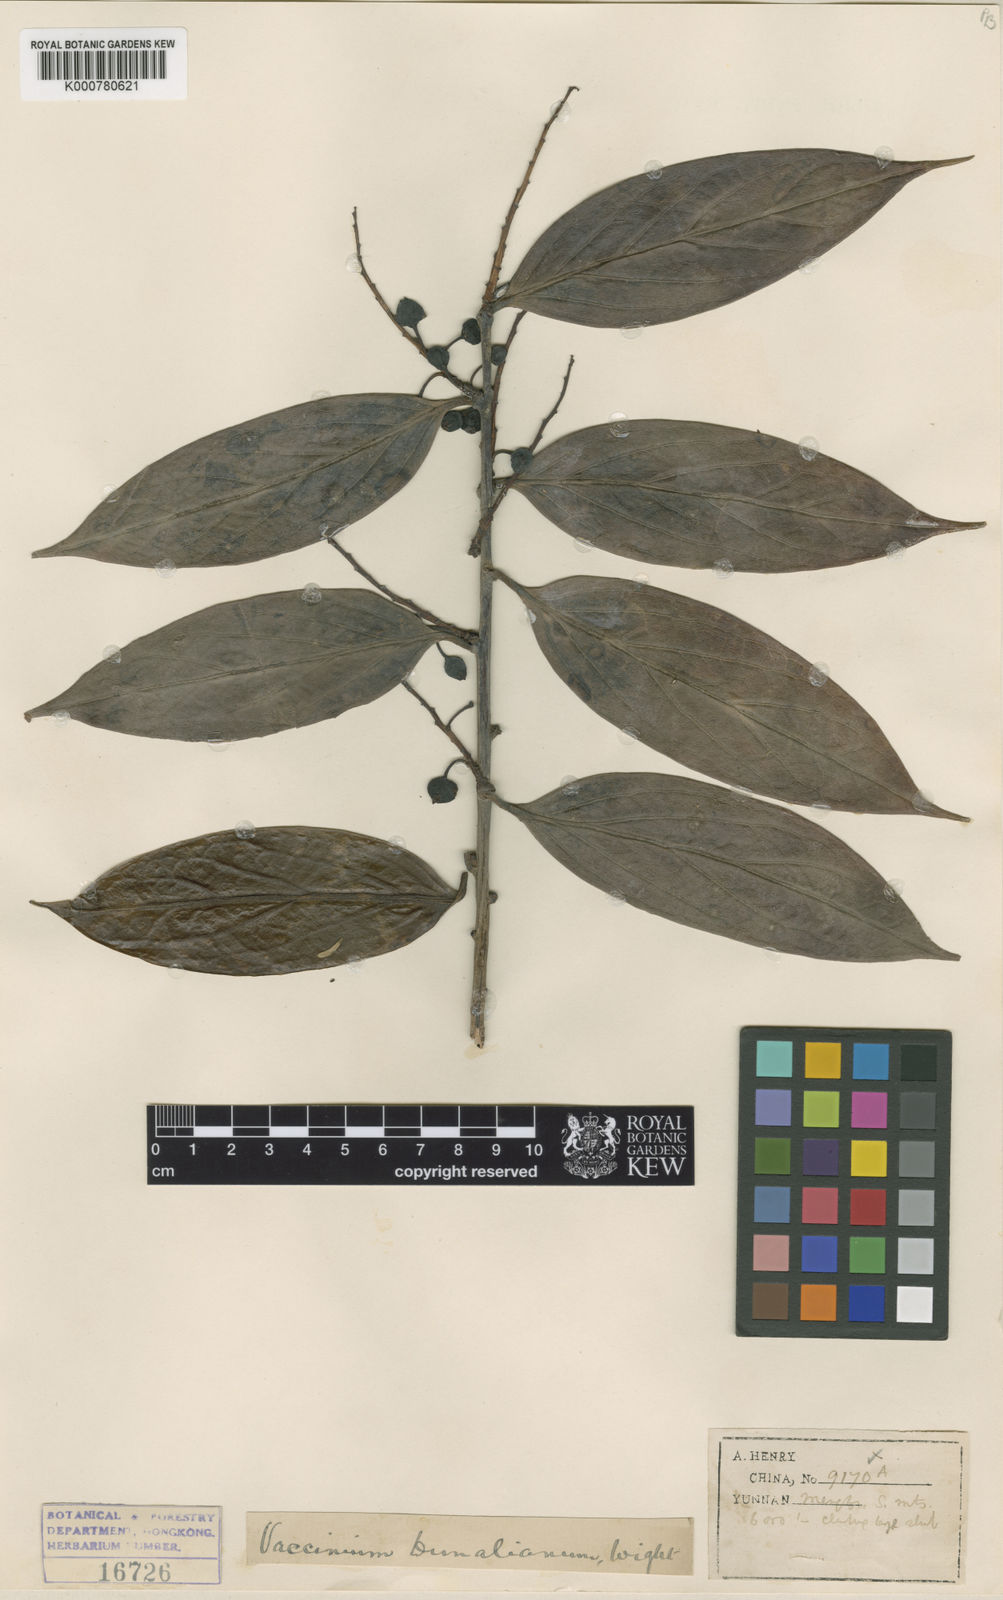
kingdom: Plantae
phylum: Tracheophyta
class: Magnoliopsida
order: Ericales
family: Ericaceae
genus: Vaccinium
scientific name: Vaccinium dunalianum
